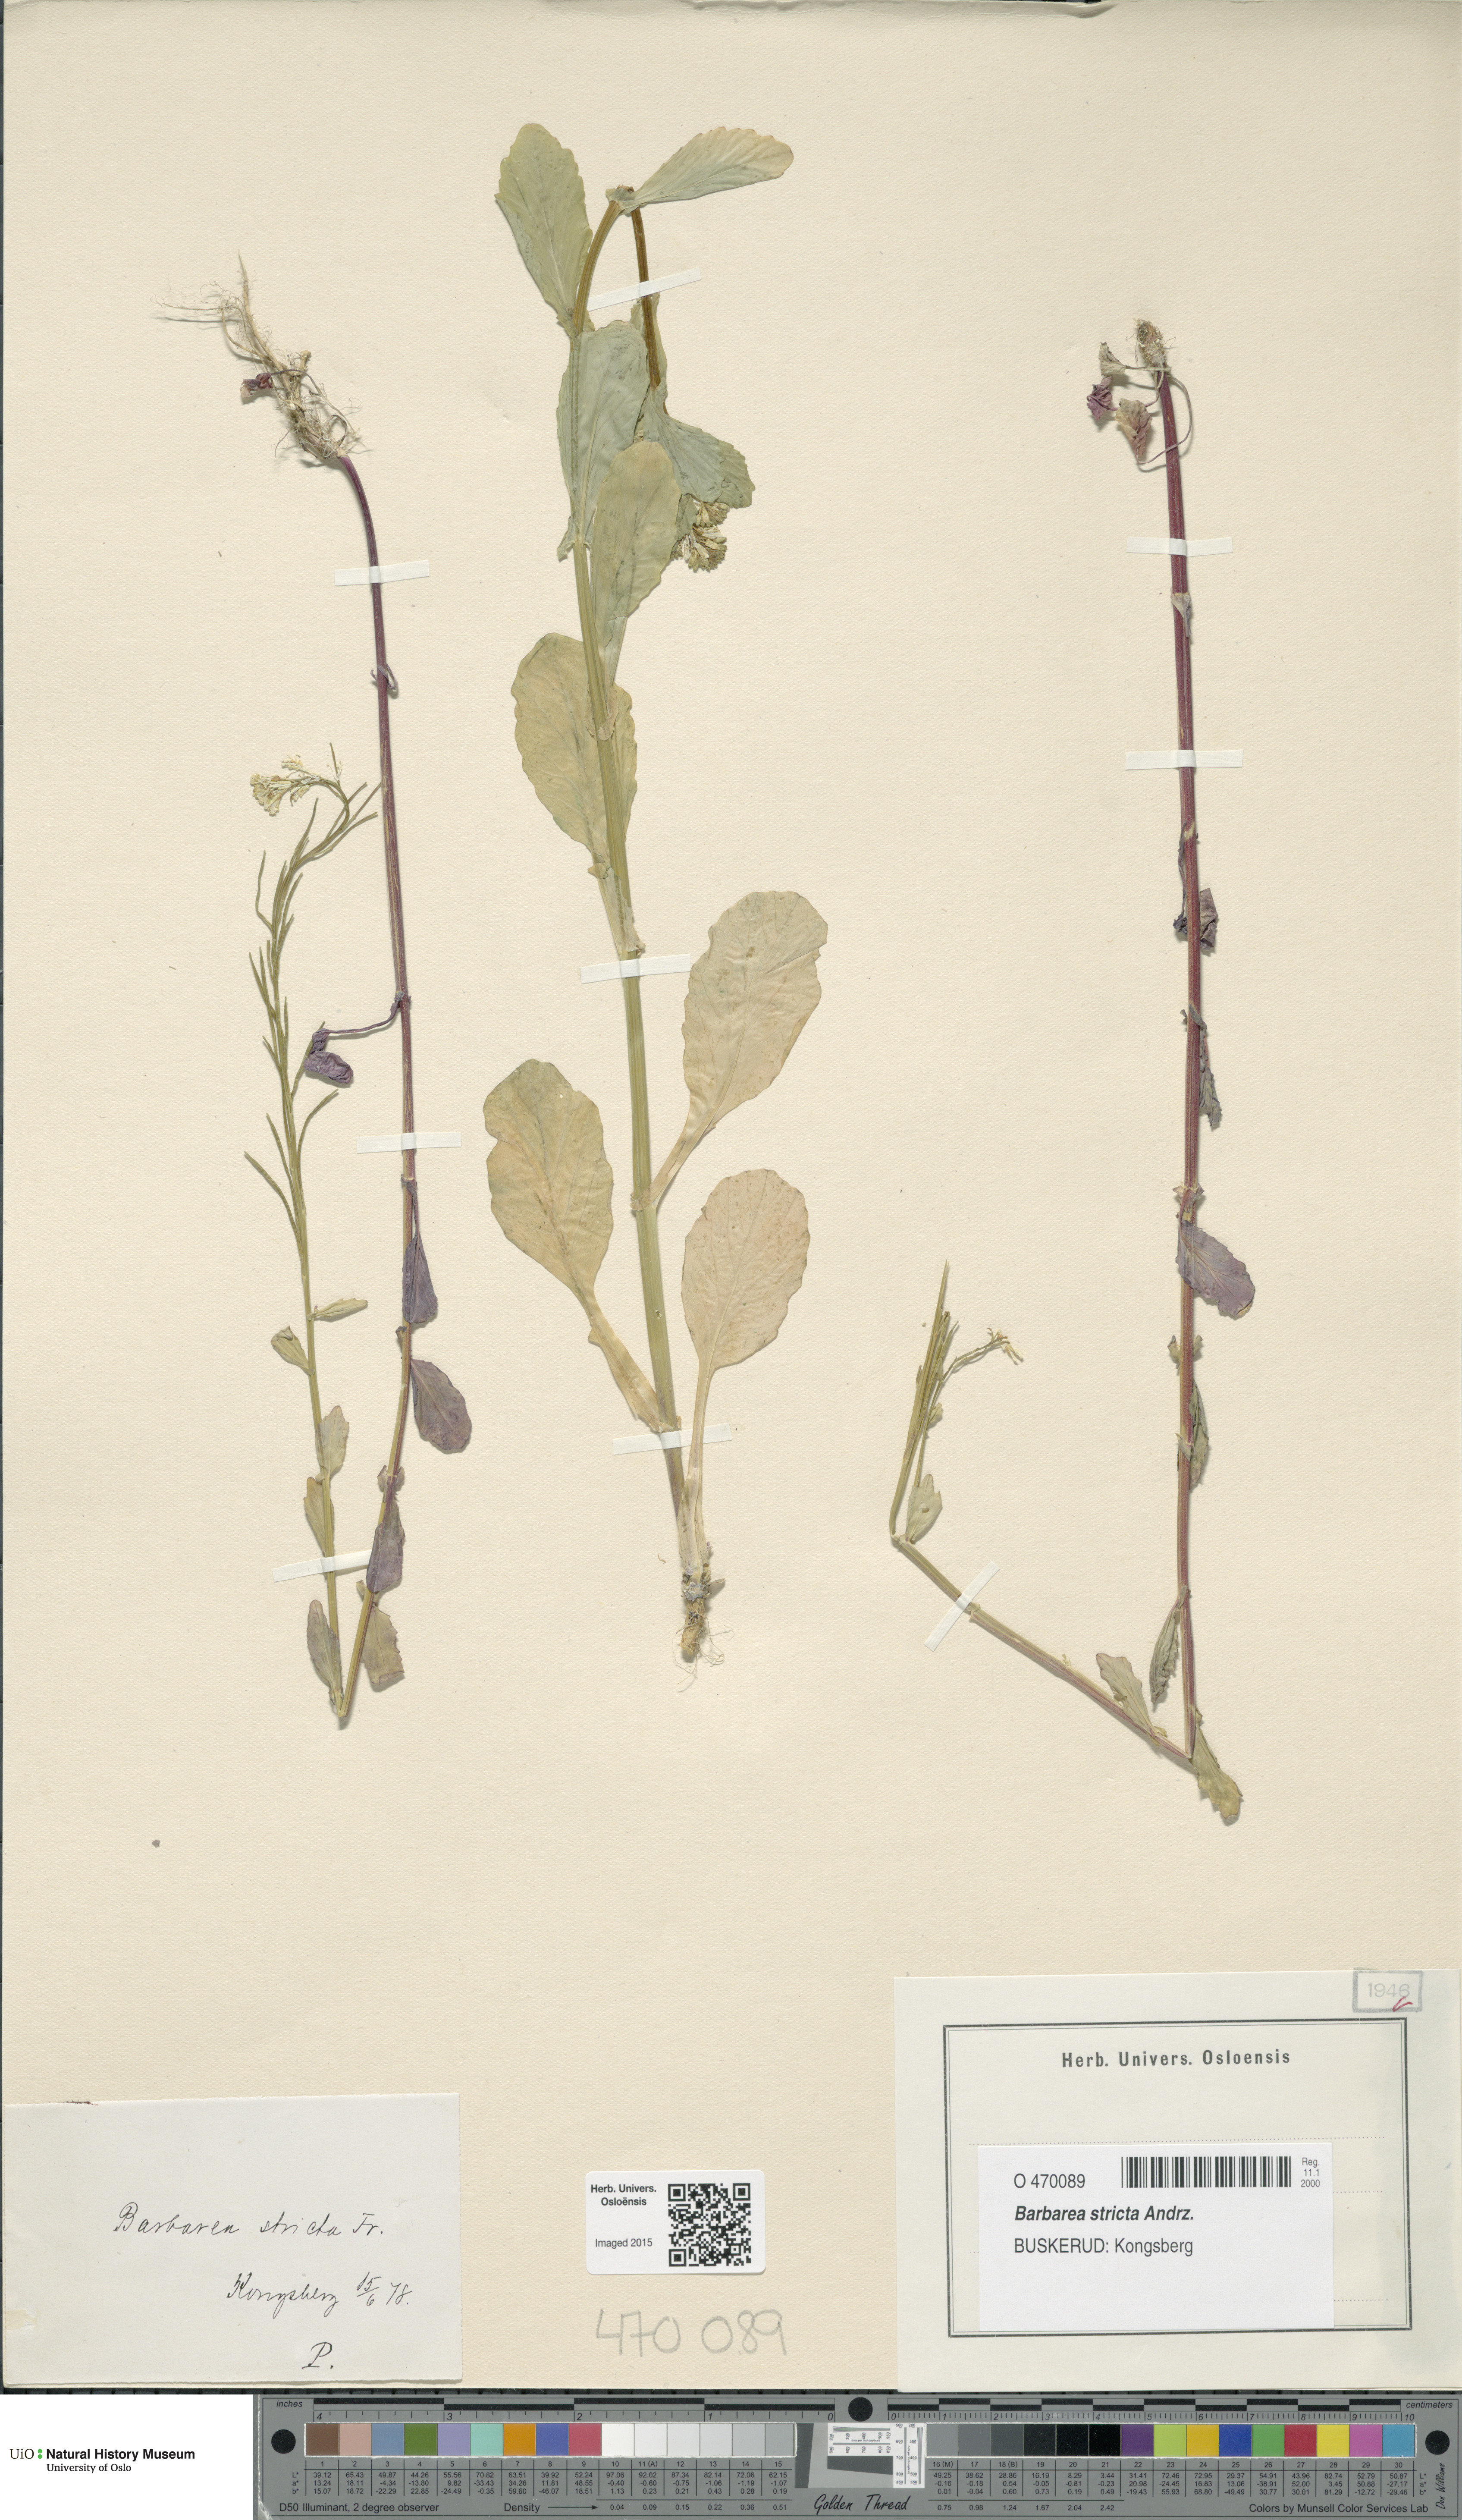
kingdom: Plantae
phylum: Tracheophyta
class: Magnoliopsida
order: Brassicales
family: Brassicaceae
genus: Barbarea
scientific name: Barbarea stricta
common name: Small-flowered winter-cress
